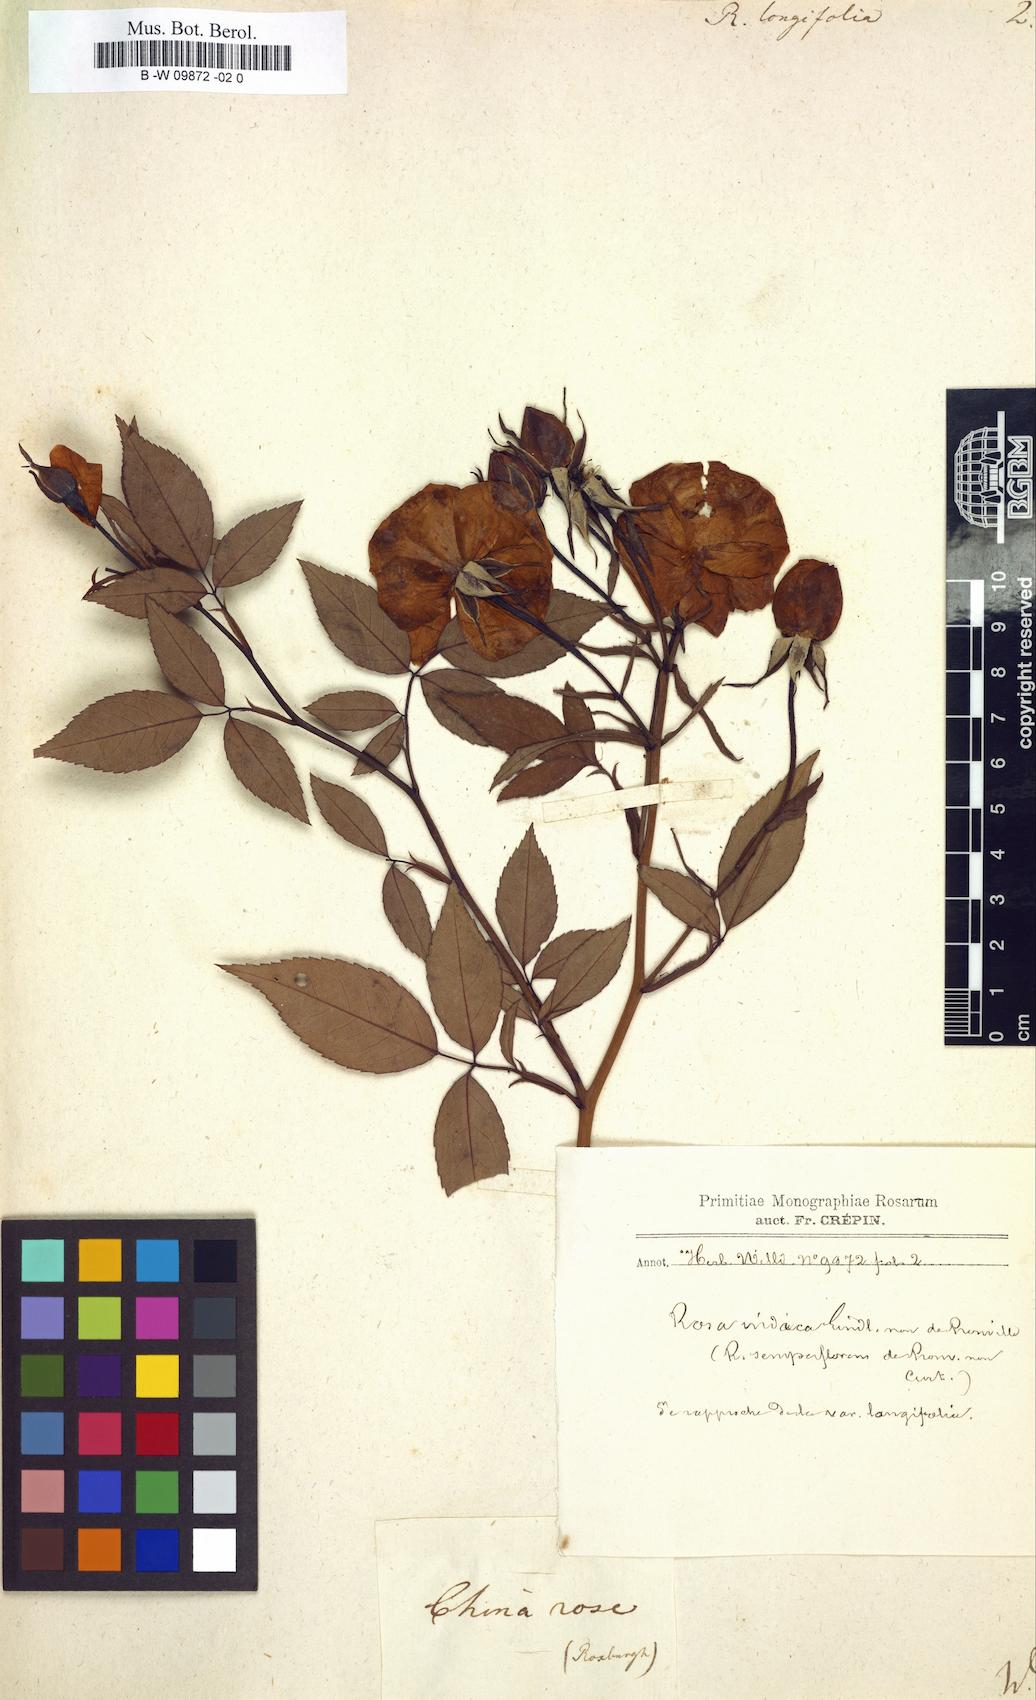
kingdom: Plantae
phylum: Tracheophyta
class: Magnoliopsida
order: Rosales
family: Rosaceae
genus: Rosa
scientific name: Rosa chinensis
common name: China rose
